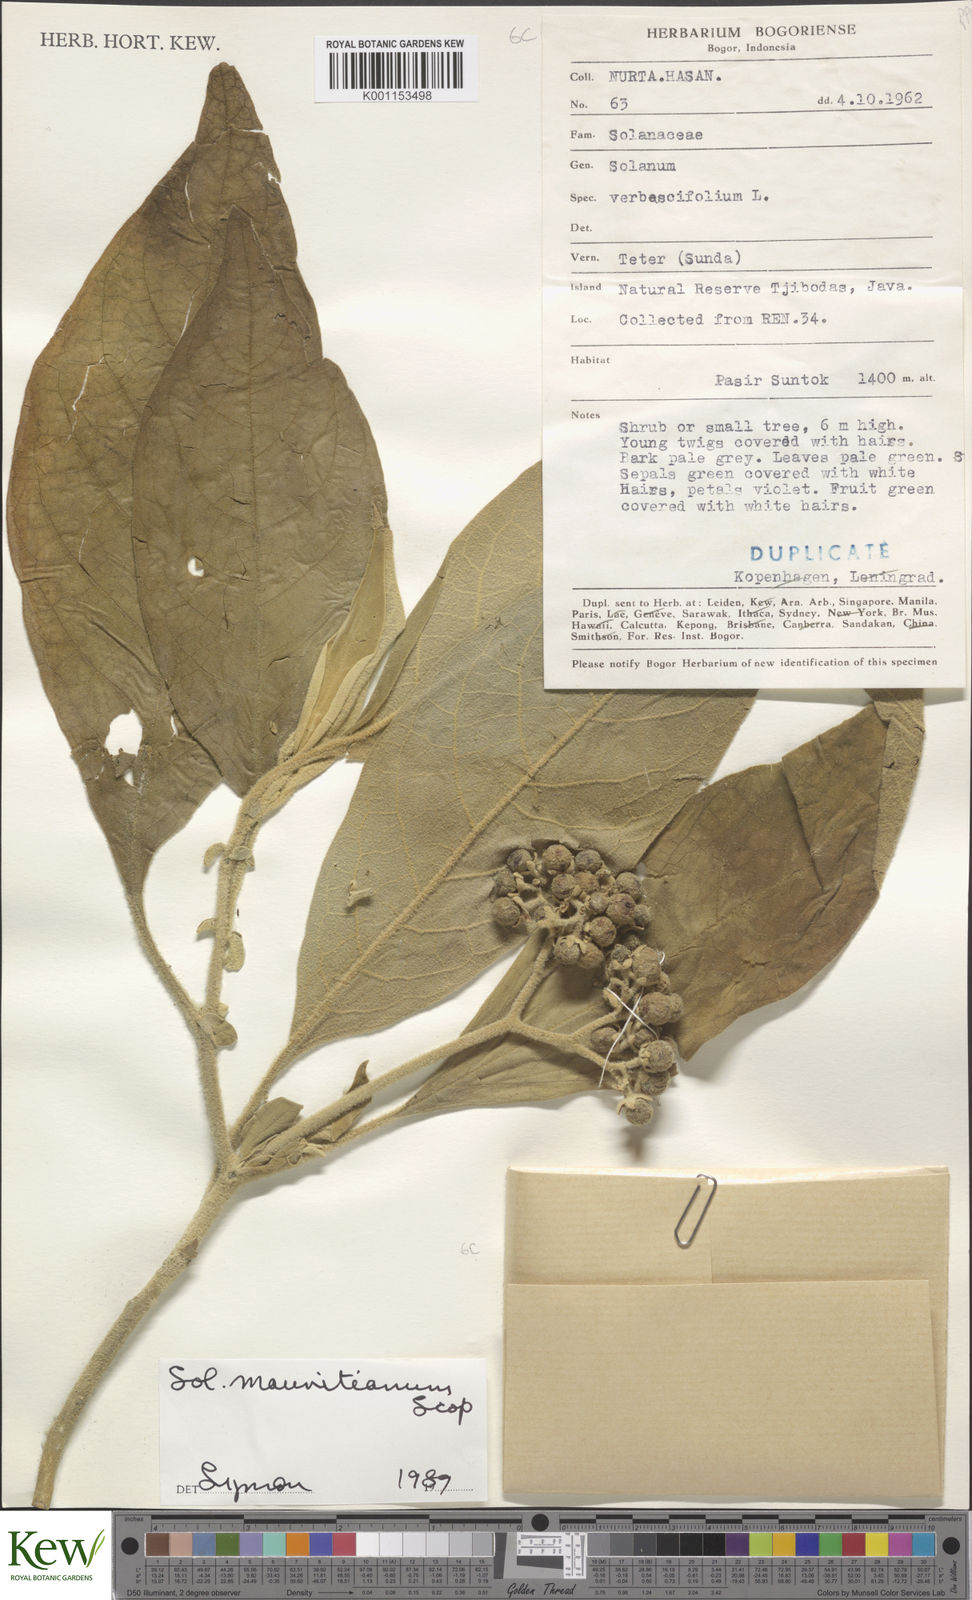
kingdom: Plantae
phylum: Tracheophyta
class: Magnoliopsida
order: Solanales
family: Solanaceae
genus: Solanum
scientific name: Solanum mauritianum
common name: Earleaf nightshade
